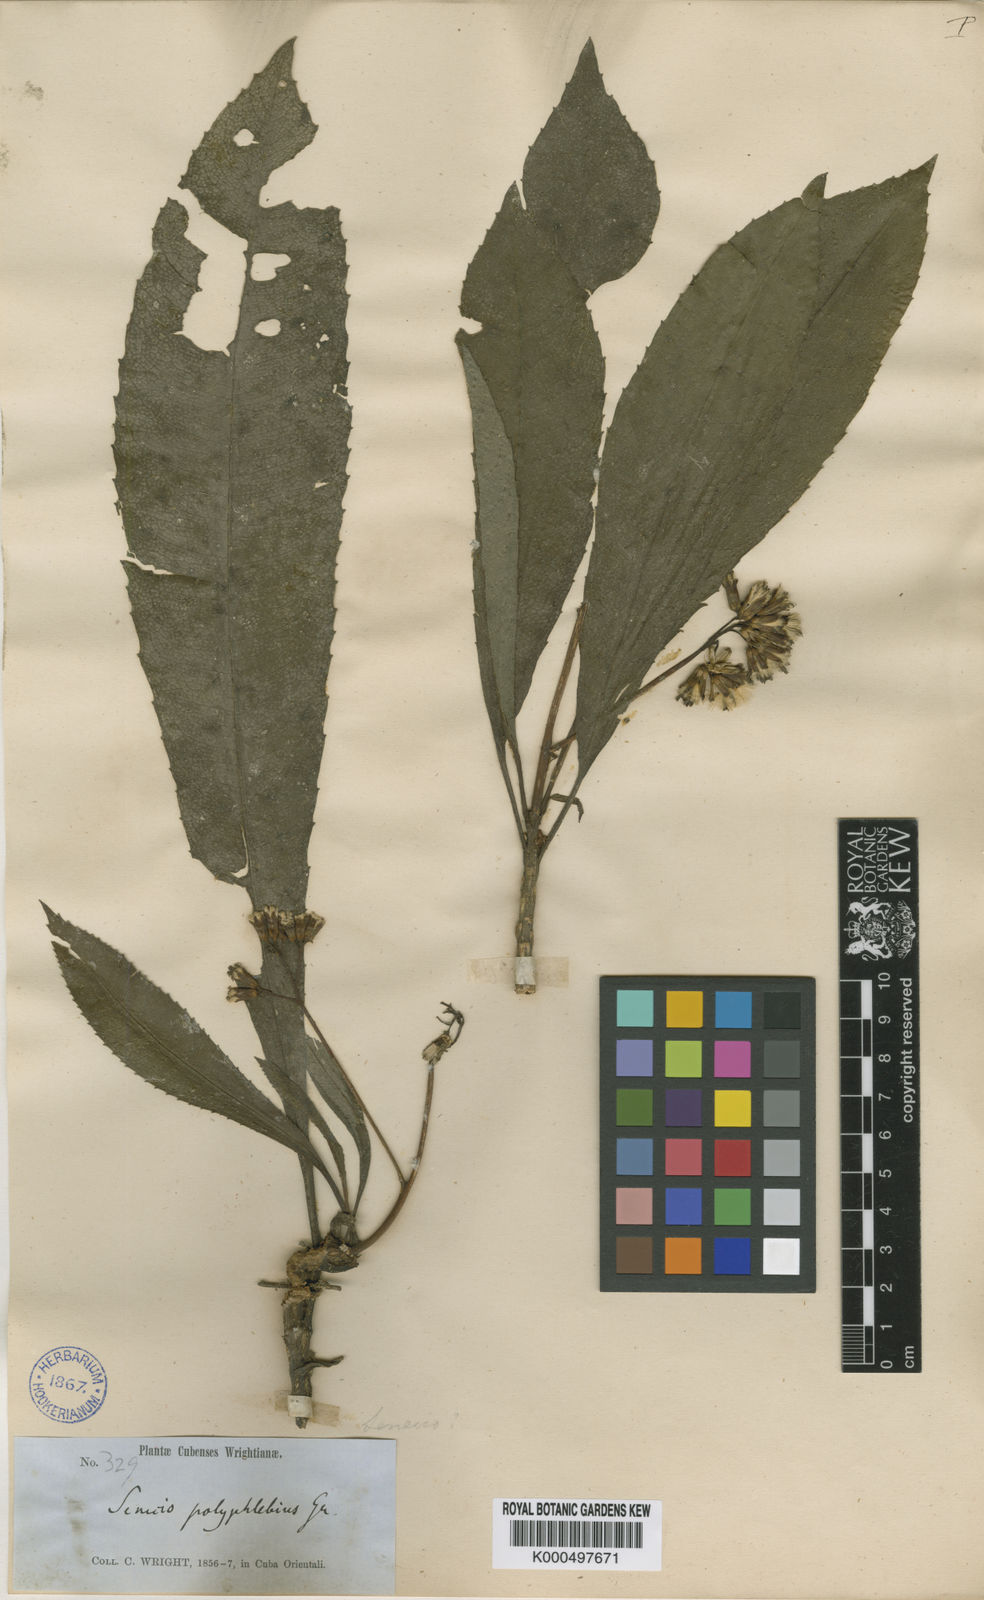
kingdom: Plantae
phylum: Tracheophyta
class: Magnoliopsida
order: Asterales
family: Asteraceae
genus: Oldfeltia
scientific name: Oldfeltia polyphlebia
